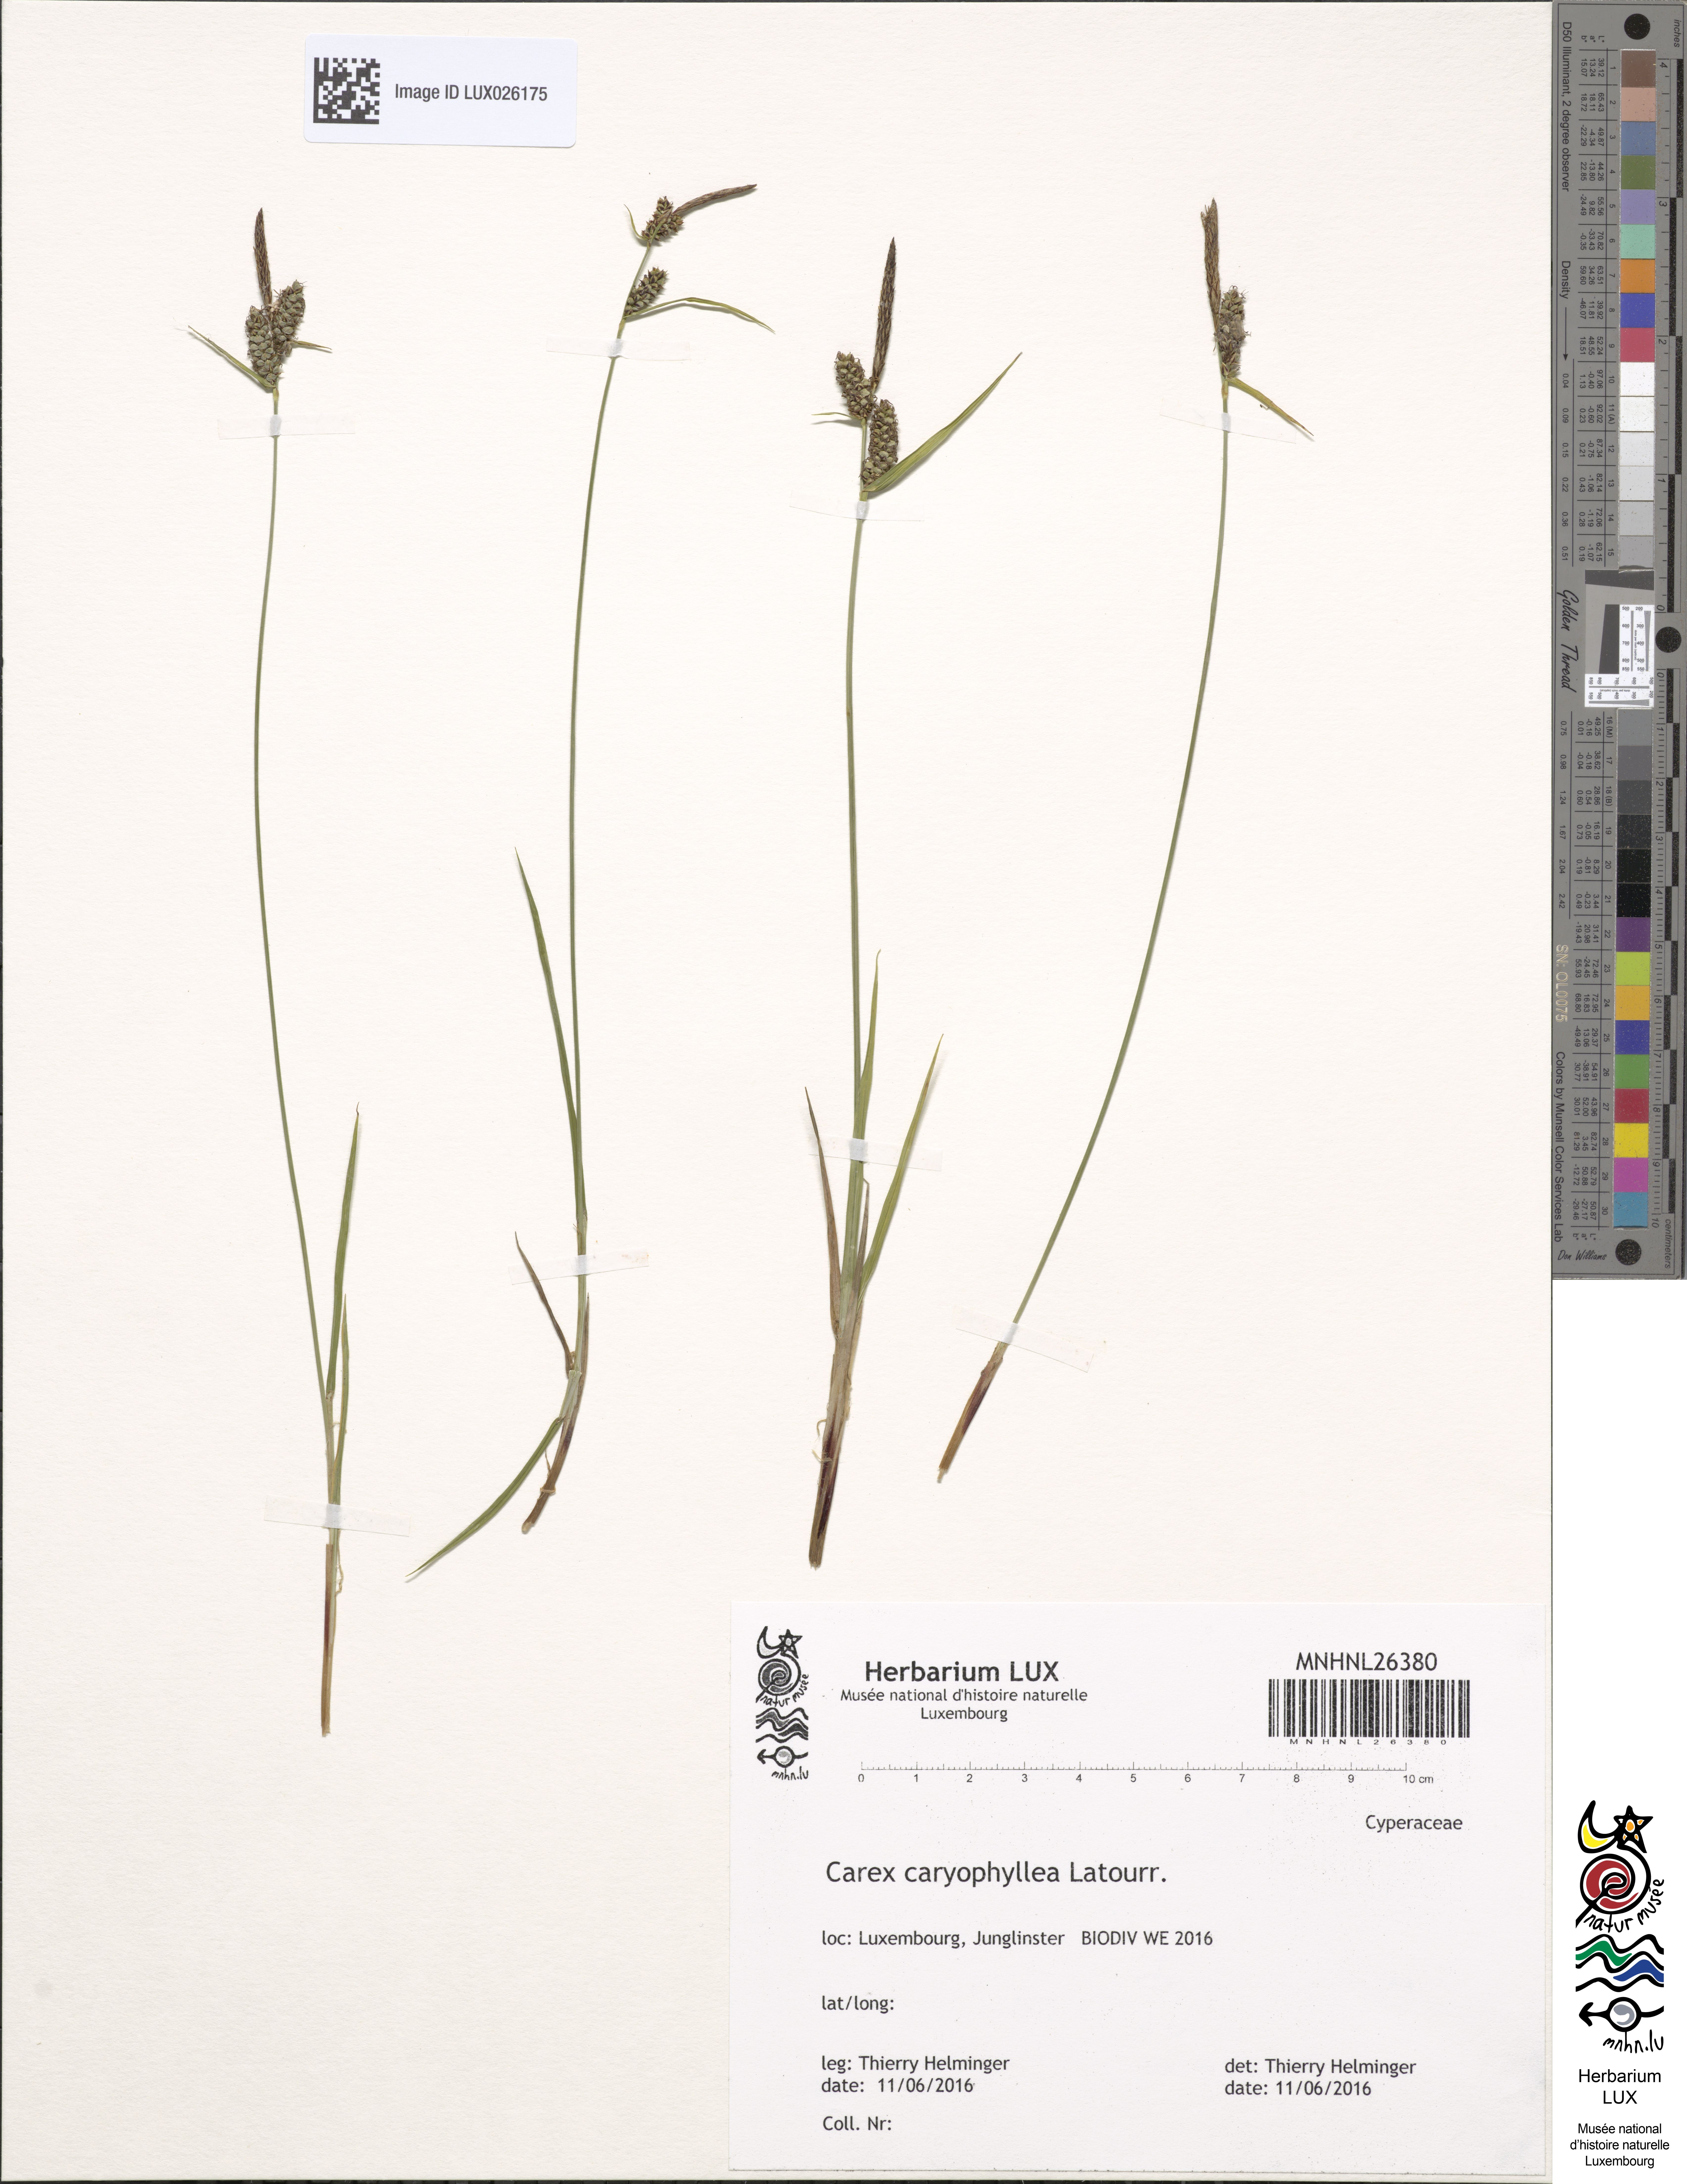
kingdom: Plantae
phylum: Tracheophyta
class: Liliopsida
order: Poales
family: Cyperaceae
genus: Carex
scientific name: Carex caryophyllea
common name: Spring sedge
